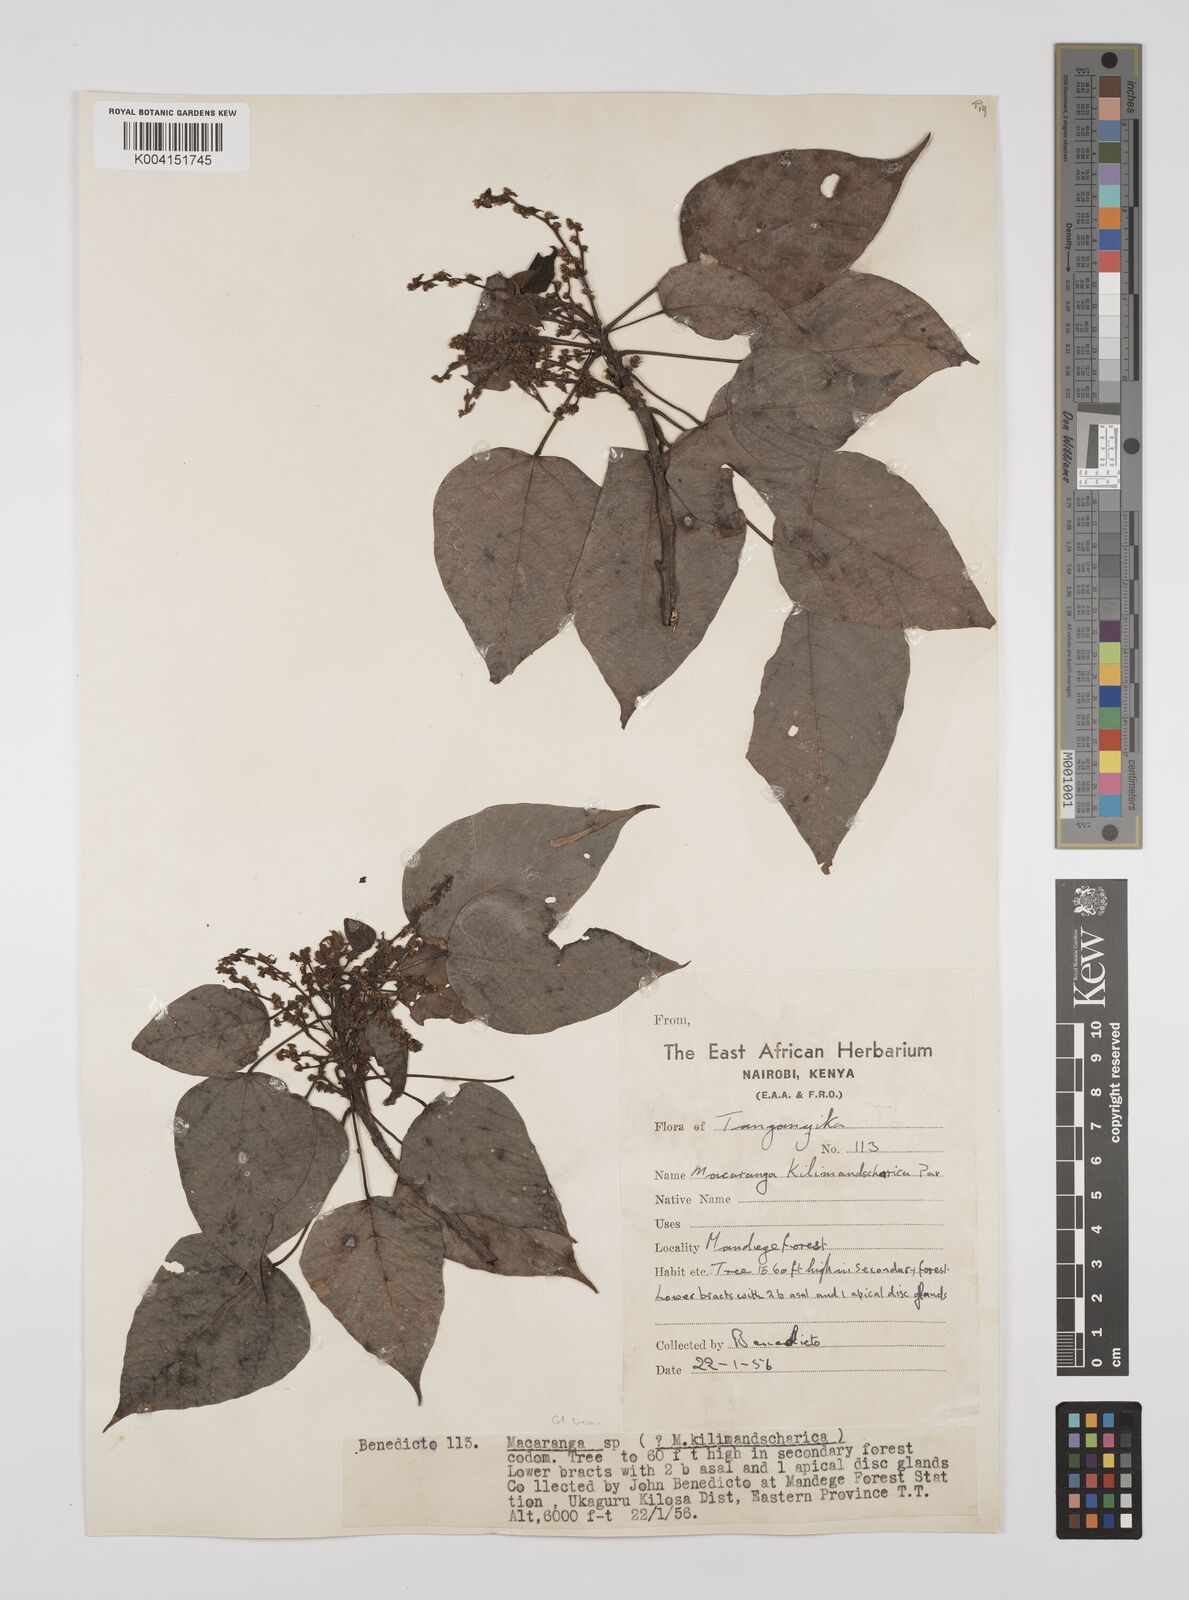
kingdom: Plantae
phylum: Tracheophyta
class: Magnoliopsida
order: Malpighiales
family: Euphorbiaceae
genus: Macaranga
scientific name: Macaranga kilimandscharica
